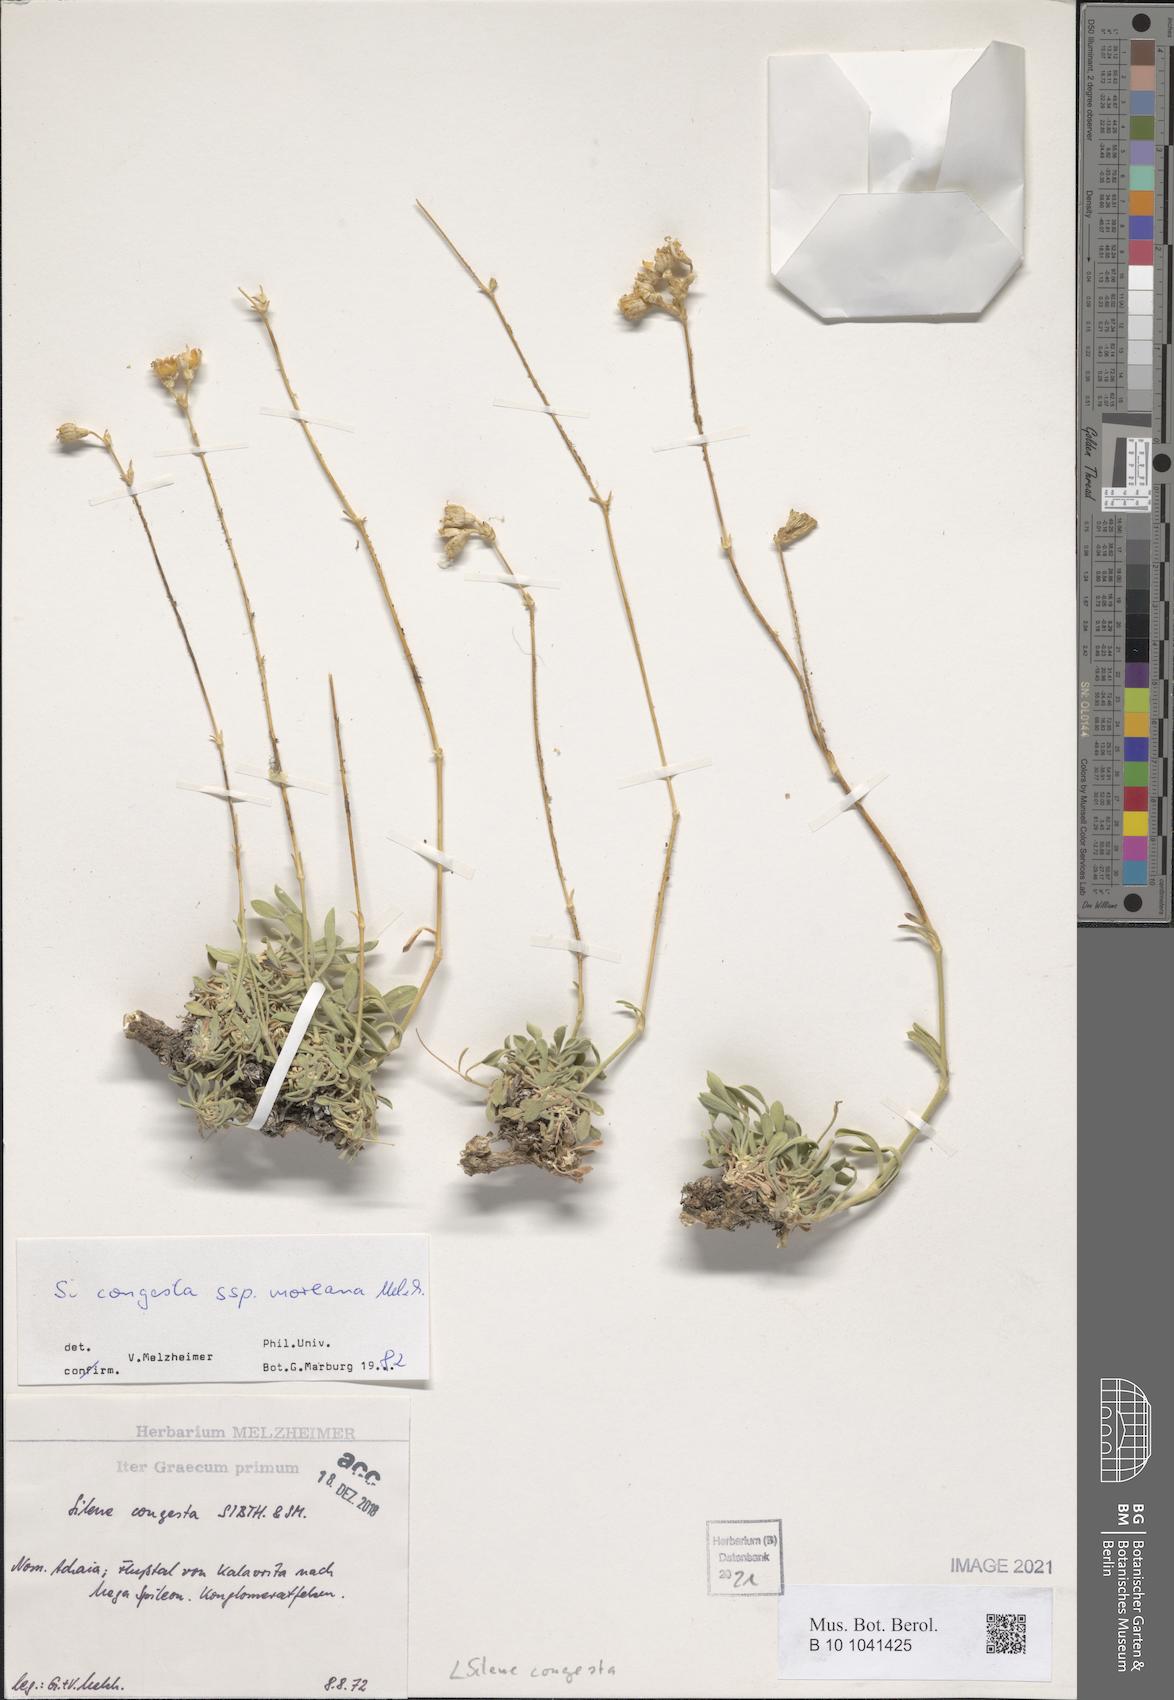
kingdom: Plantae
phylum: Tracheophyta
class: Magnoliopsida
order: Caryophyllales
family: Caryophyllaceae
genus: Silene
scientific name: Silene congesta
